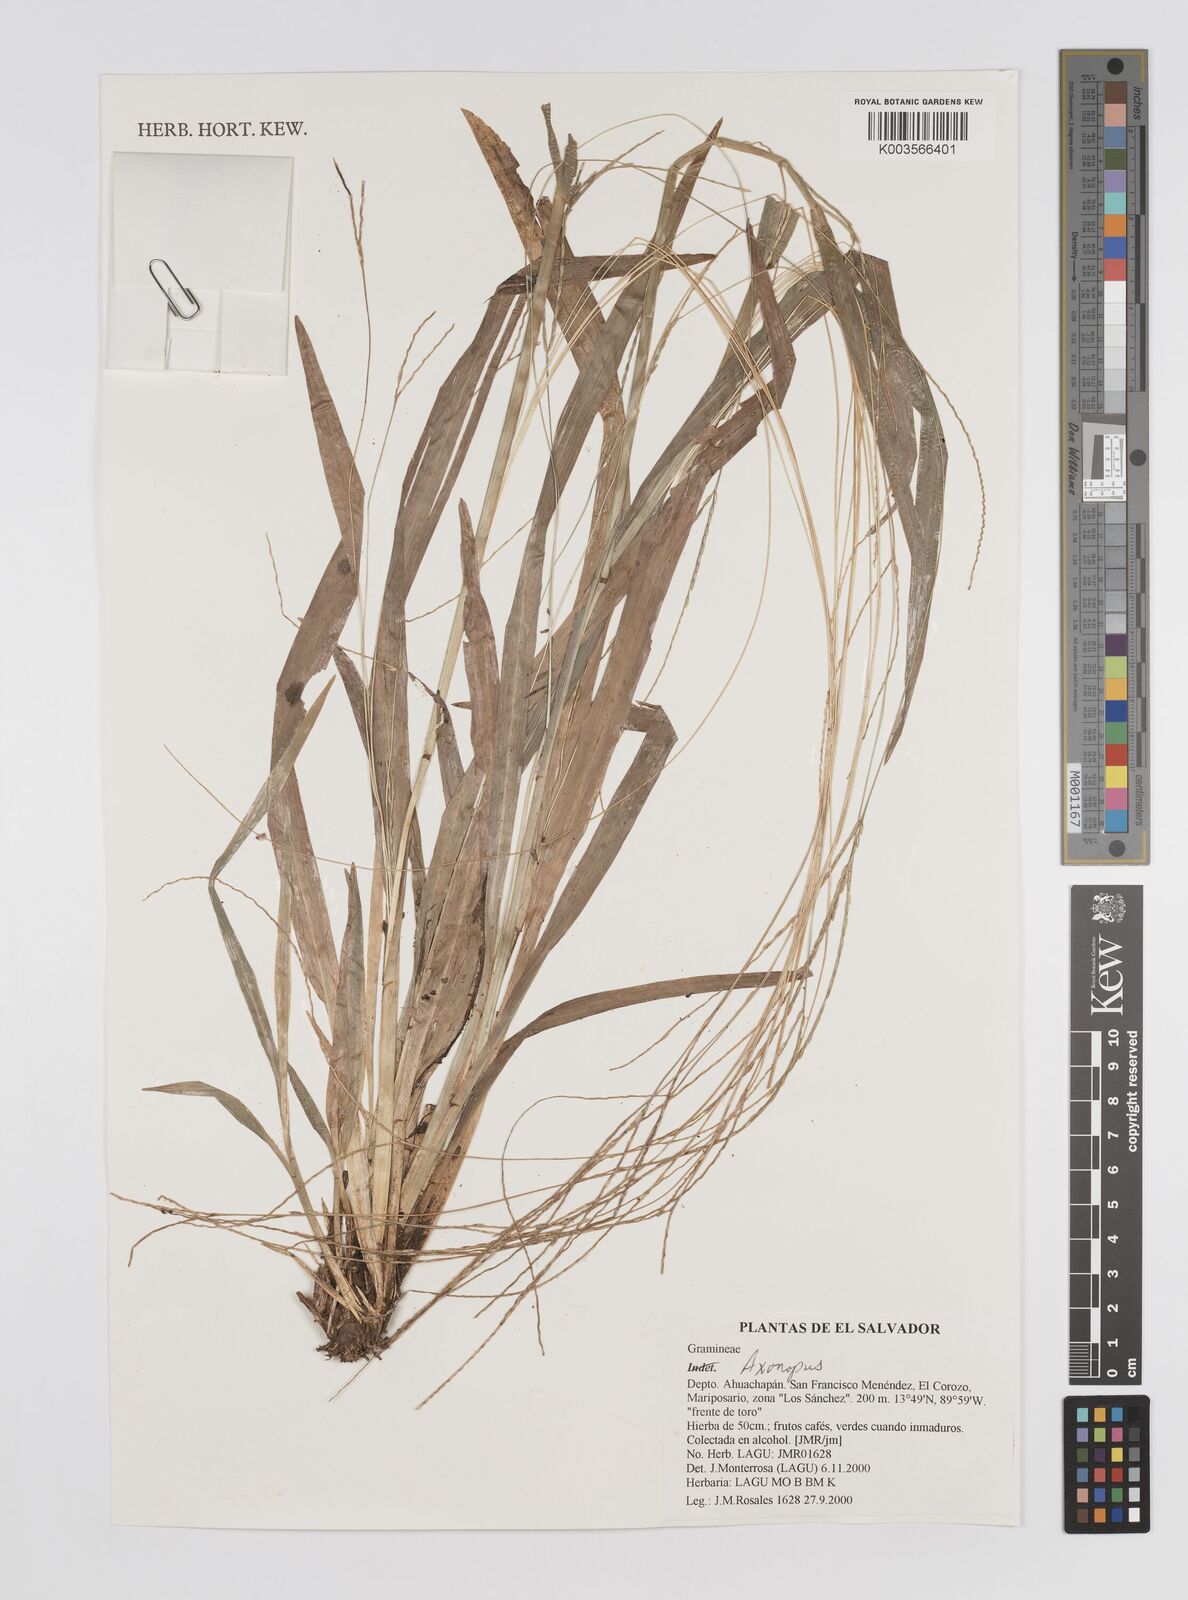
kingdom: Plantae
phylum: Tracheophyta
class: Liliopsida
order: Poales
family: Poaceae
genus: Axonopus
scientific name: Axonopus
